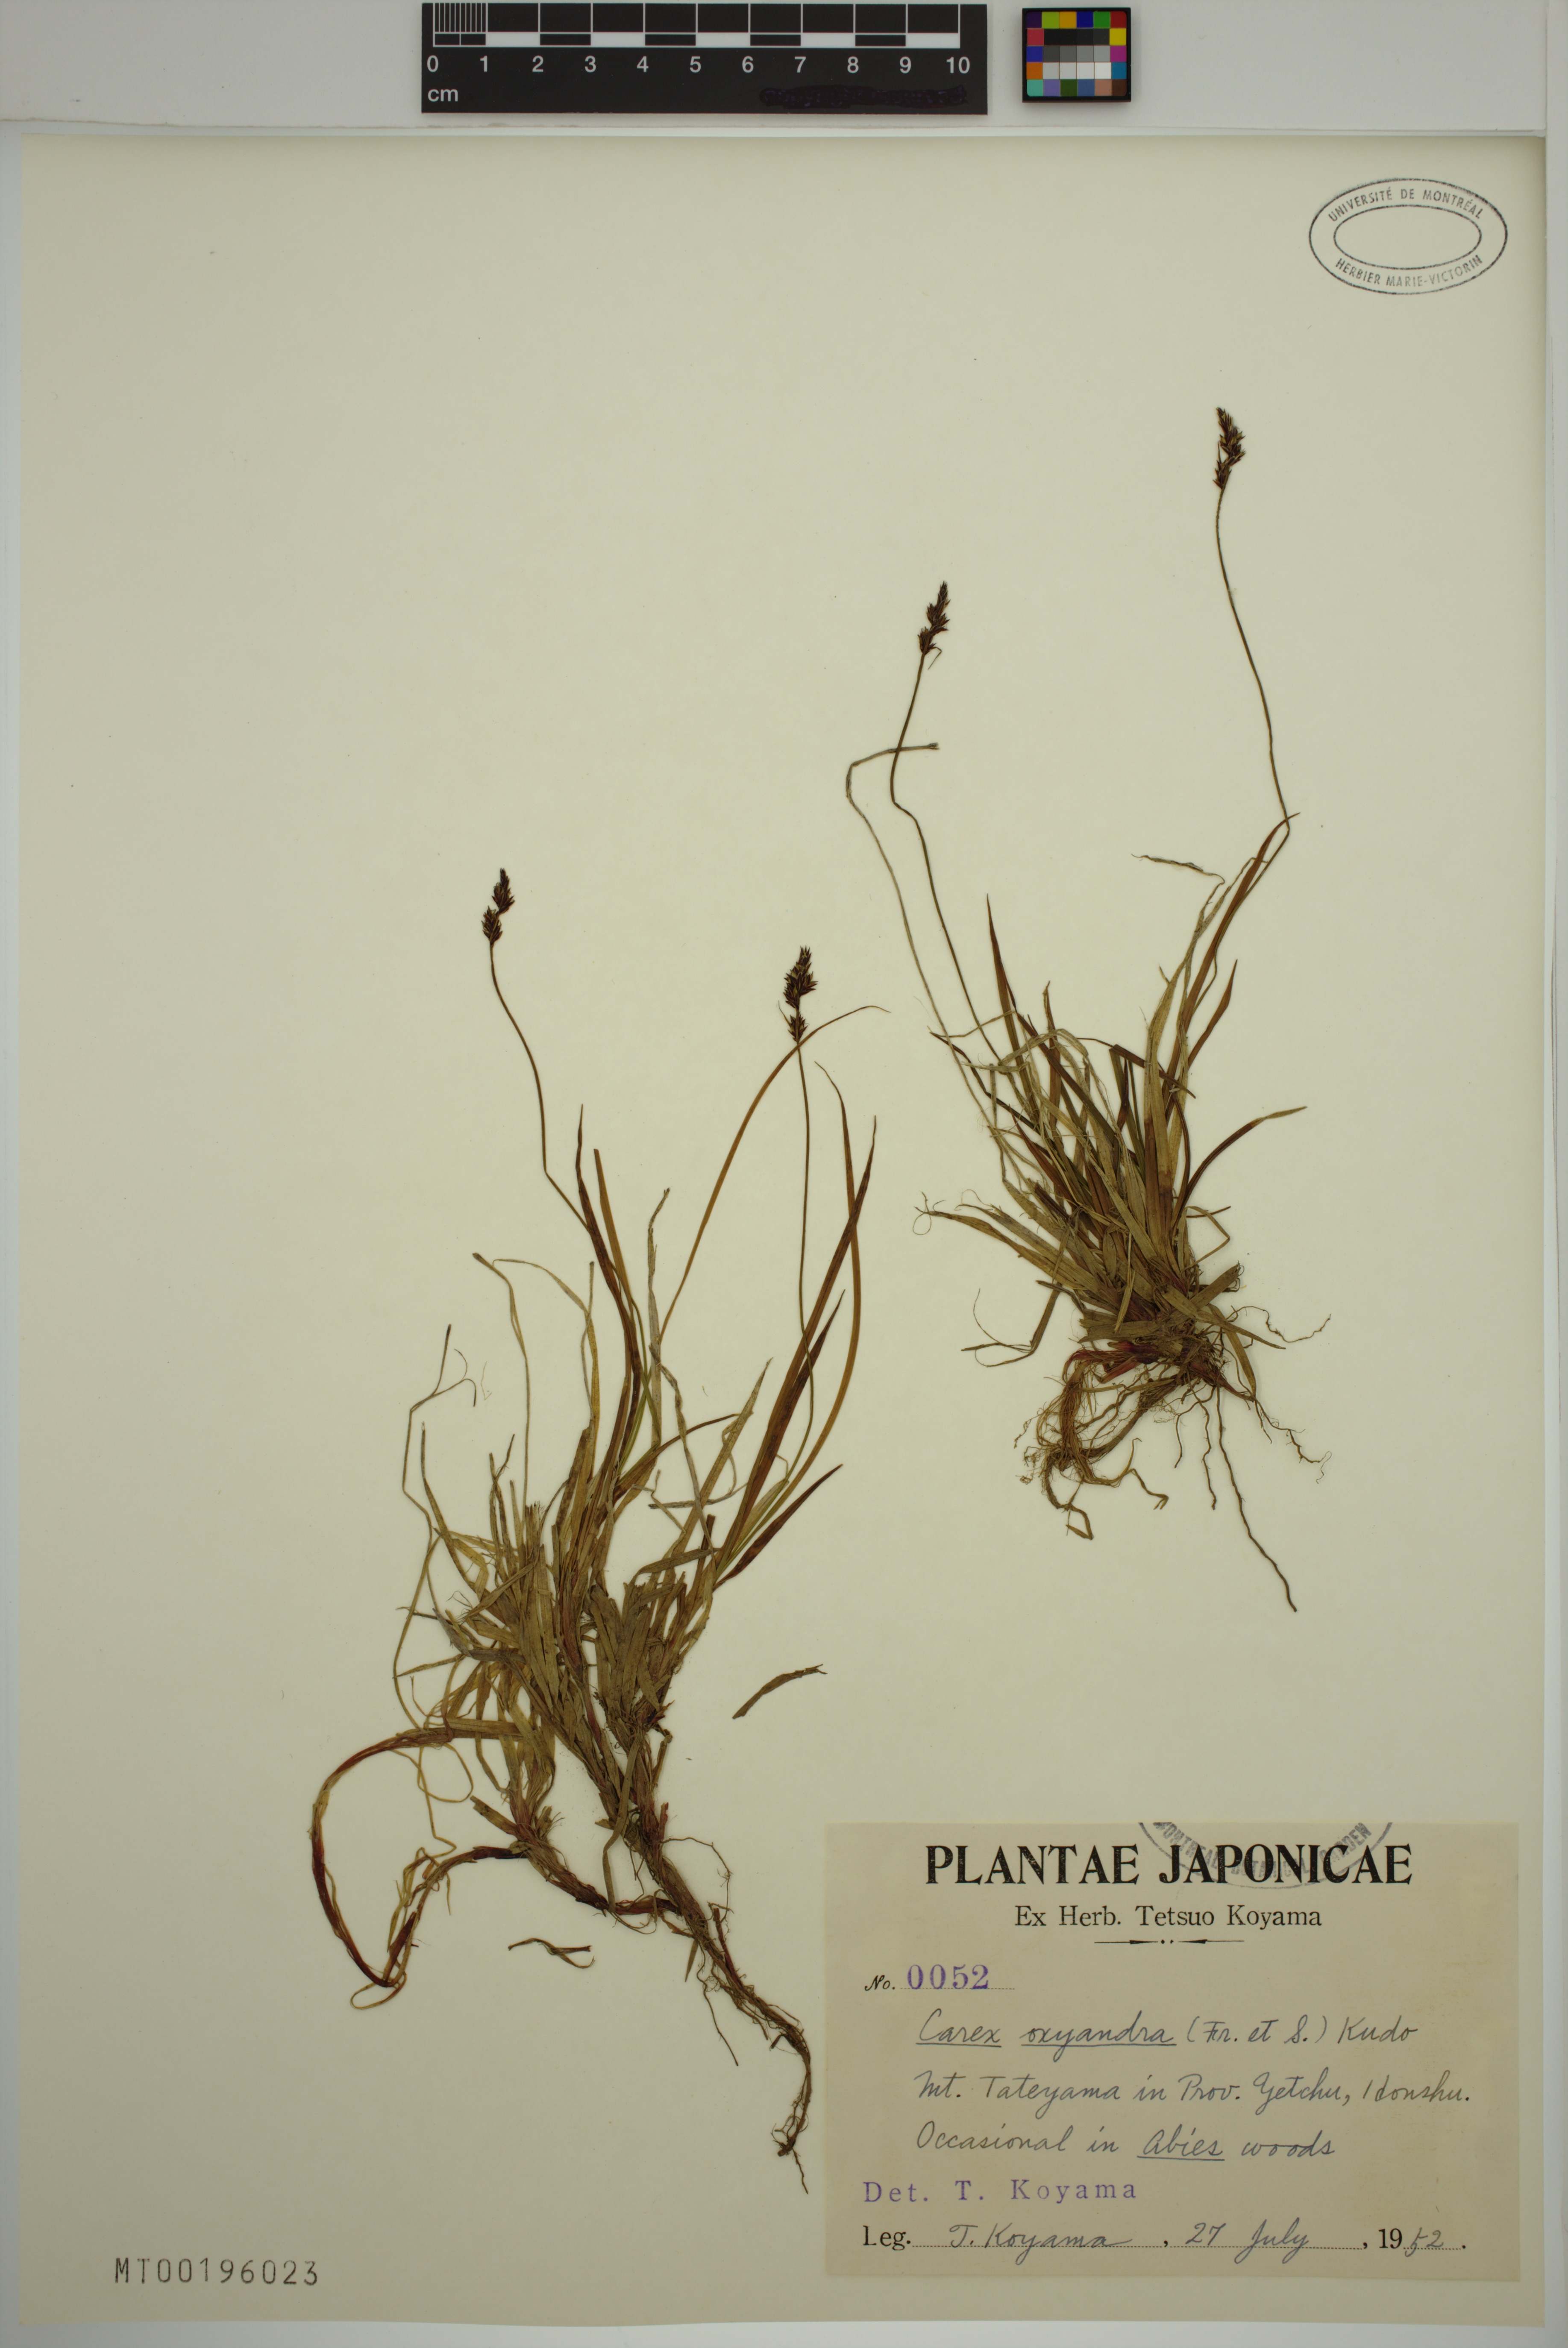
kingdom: Plantae
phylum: Tracheophyta
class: Liliopsida
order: Poales
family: Cyperaceae
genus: Carex
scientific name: Carex oxyandra
